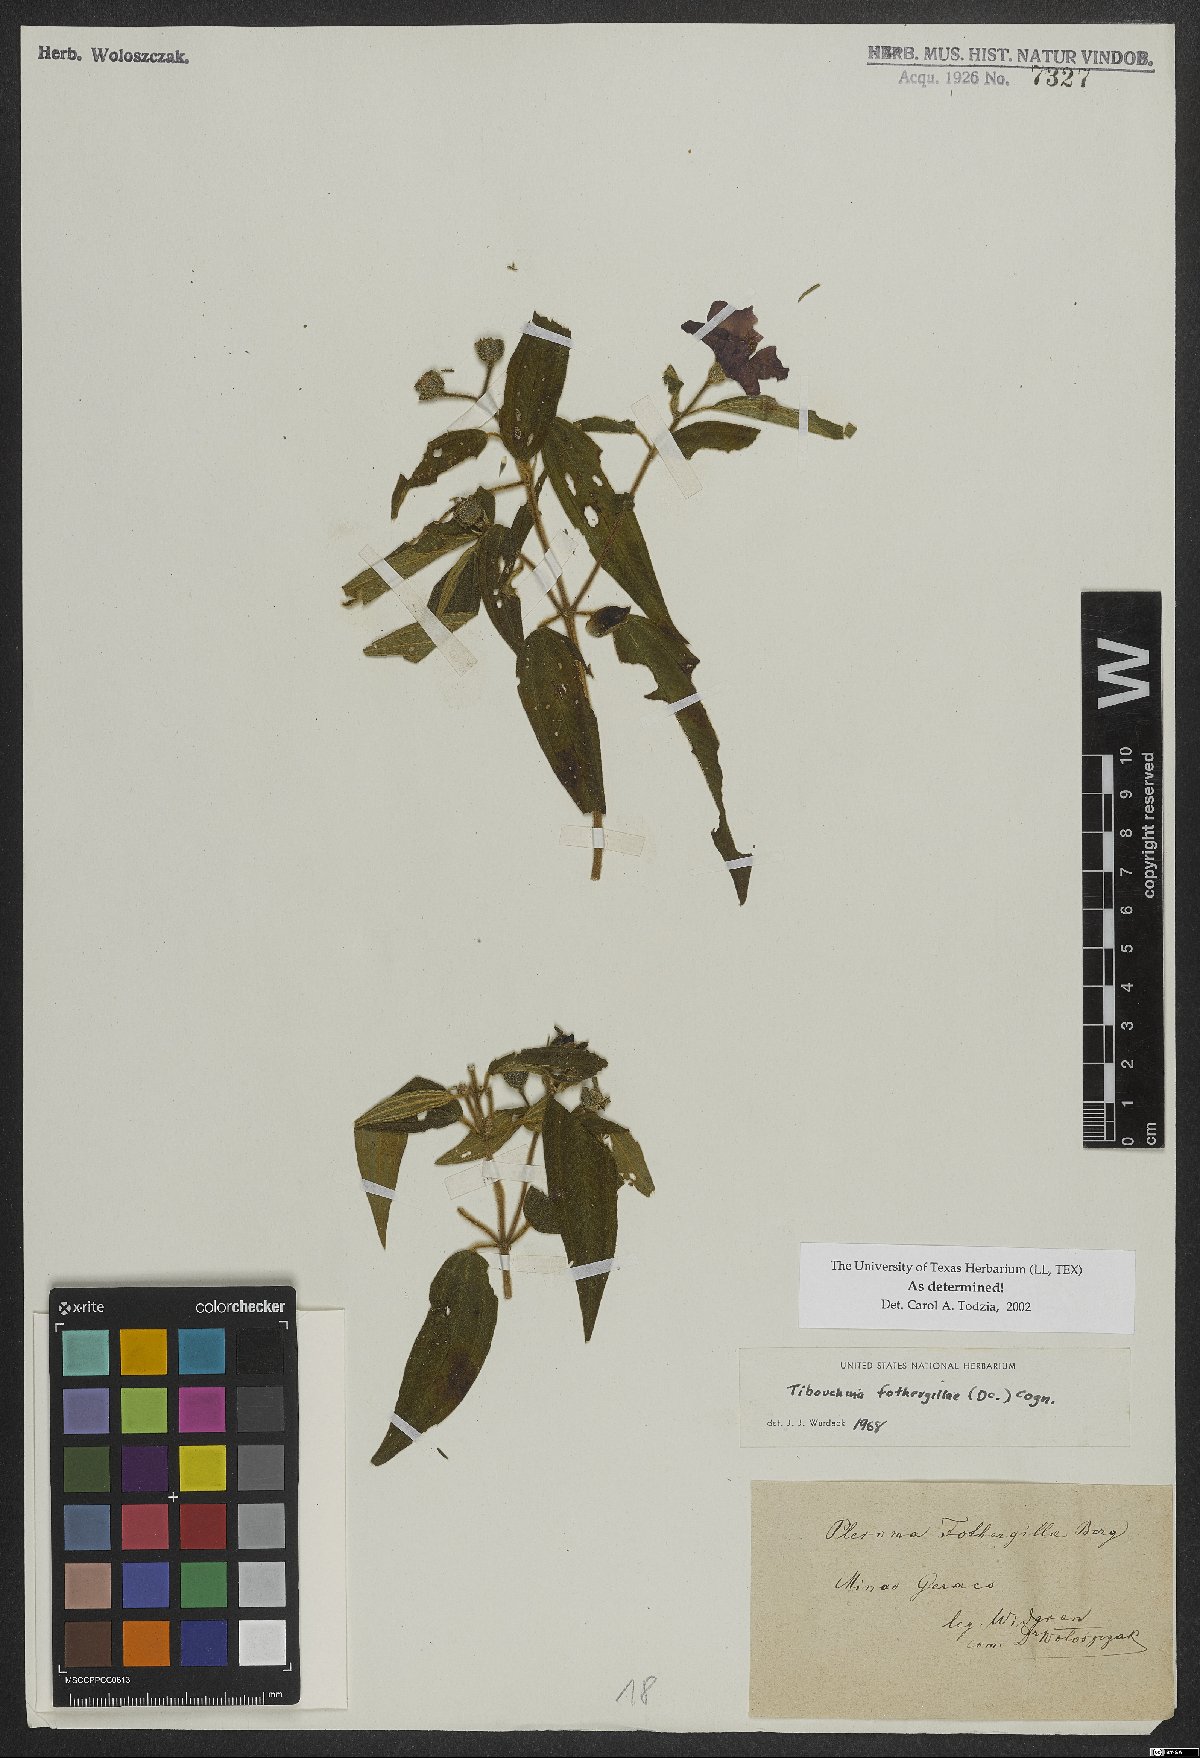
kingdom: Plantae
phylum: Tracheophyta
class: Magnoliopsida
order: Myrtales
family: Melastomataceae
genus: Pleroma
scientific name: Pleroma fothergillae
